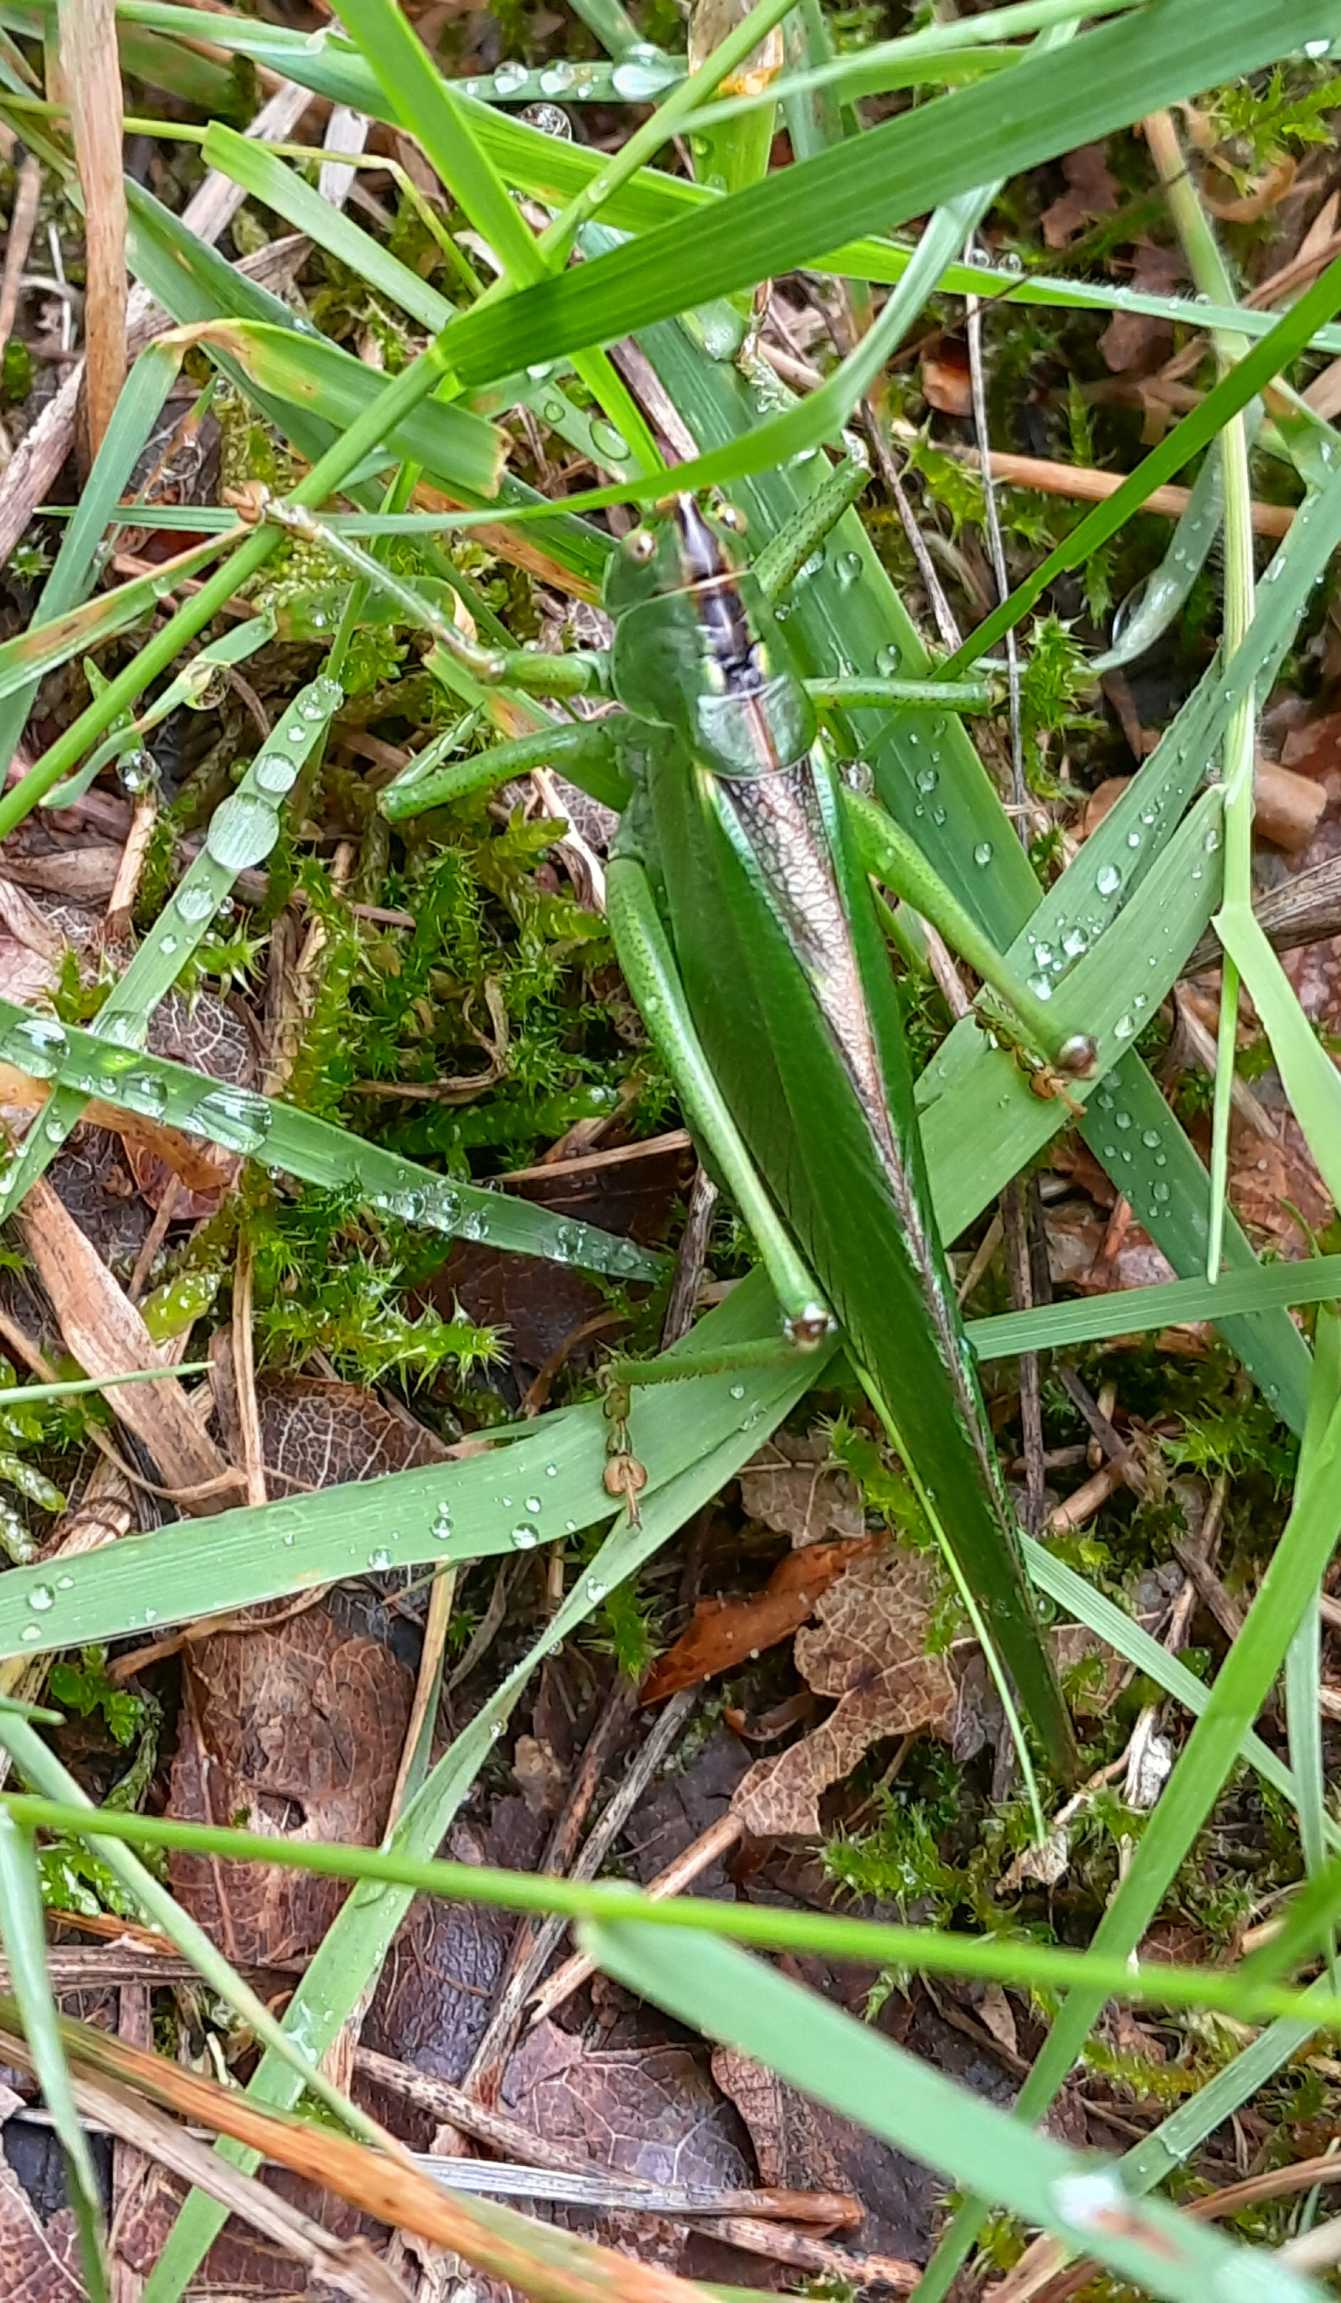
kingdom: Animalia
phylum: Arthropoda
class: Insecta
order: Orthoptera
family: Tettigoniidae
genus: Tettigonia
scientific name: Tettigonia viridissima
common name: Stor grøn løvgræshoppe
